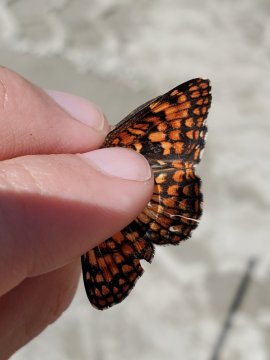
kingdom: Animalia
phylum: Arthropoda
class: Insecta
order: Lepidoptera
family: Nymphalidae
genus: Chlosyne
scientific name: Chlosyne palla
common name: Northern Checkerspot
